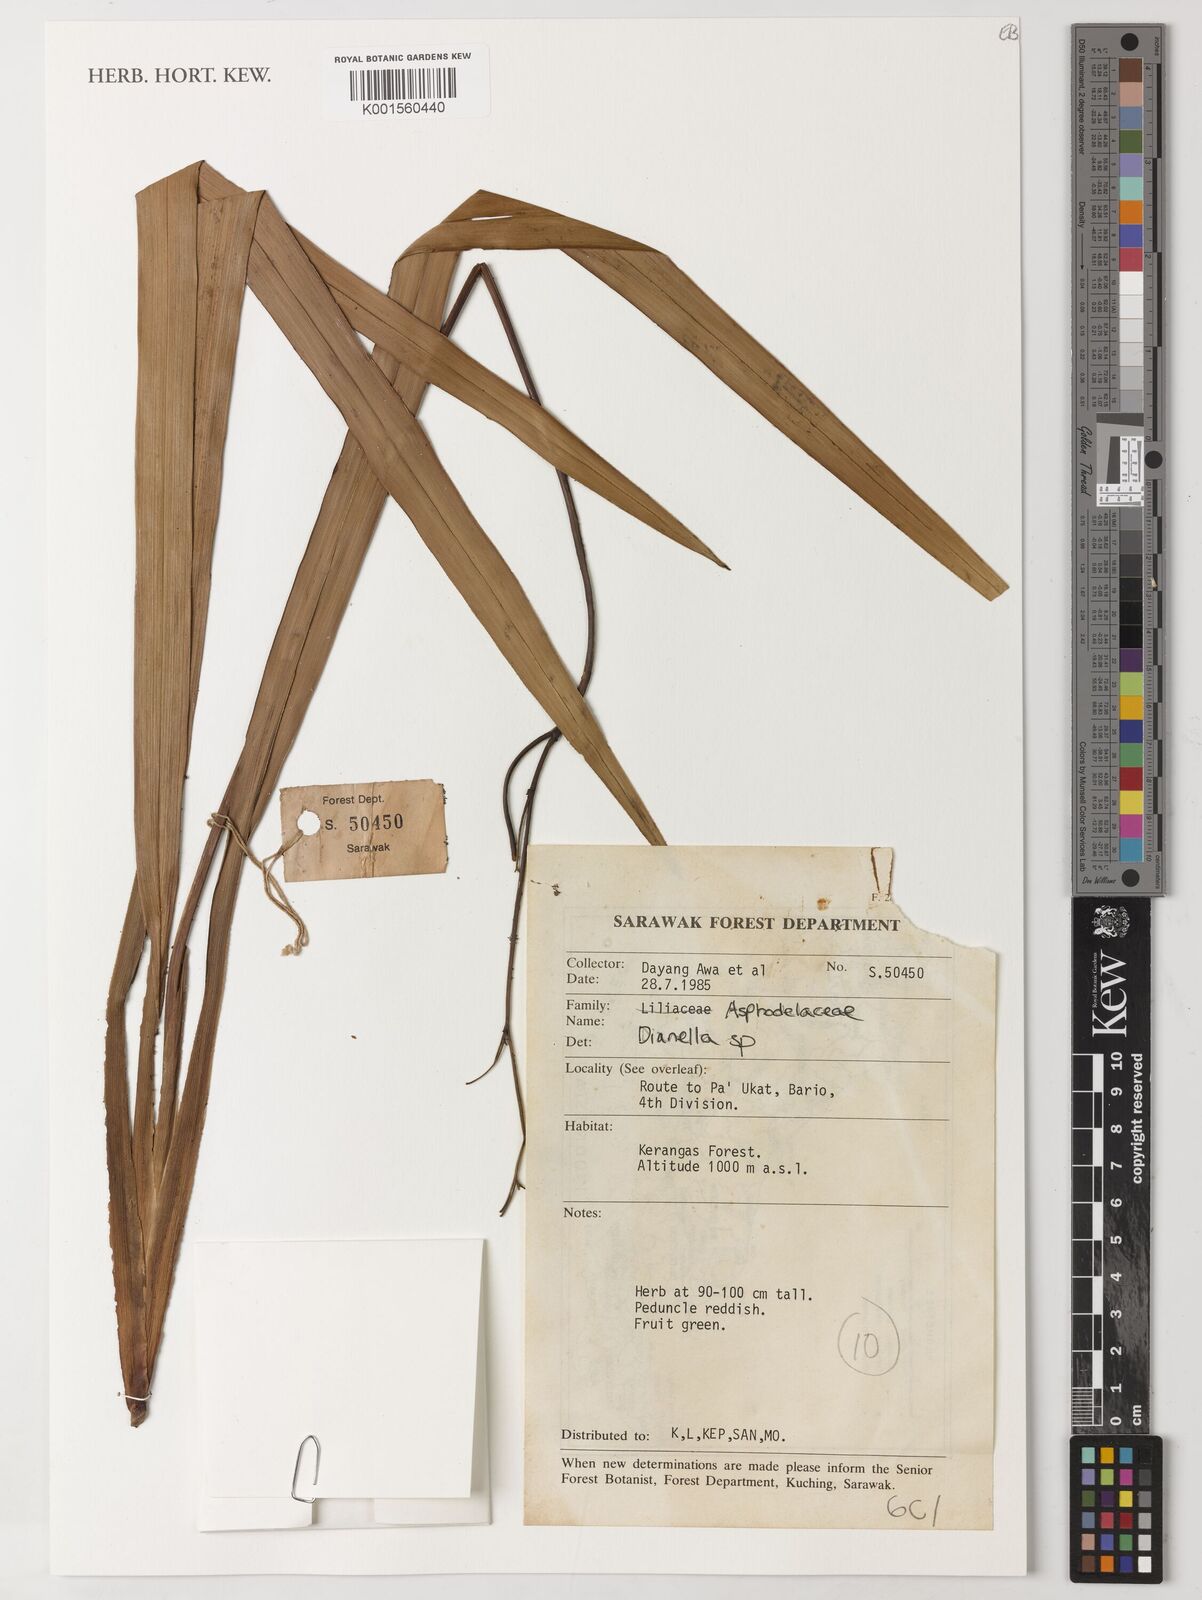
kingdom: Plantae
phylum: Tracheophyta
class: Liliopsida
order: Asparagales
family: Asphodelaceae
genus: Dianella
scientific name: Dianella
